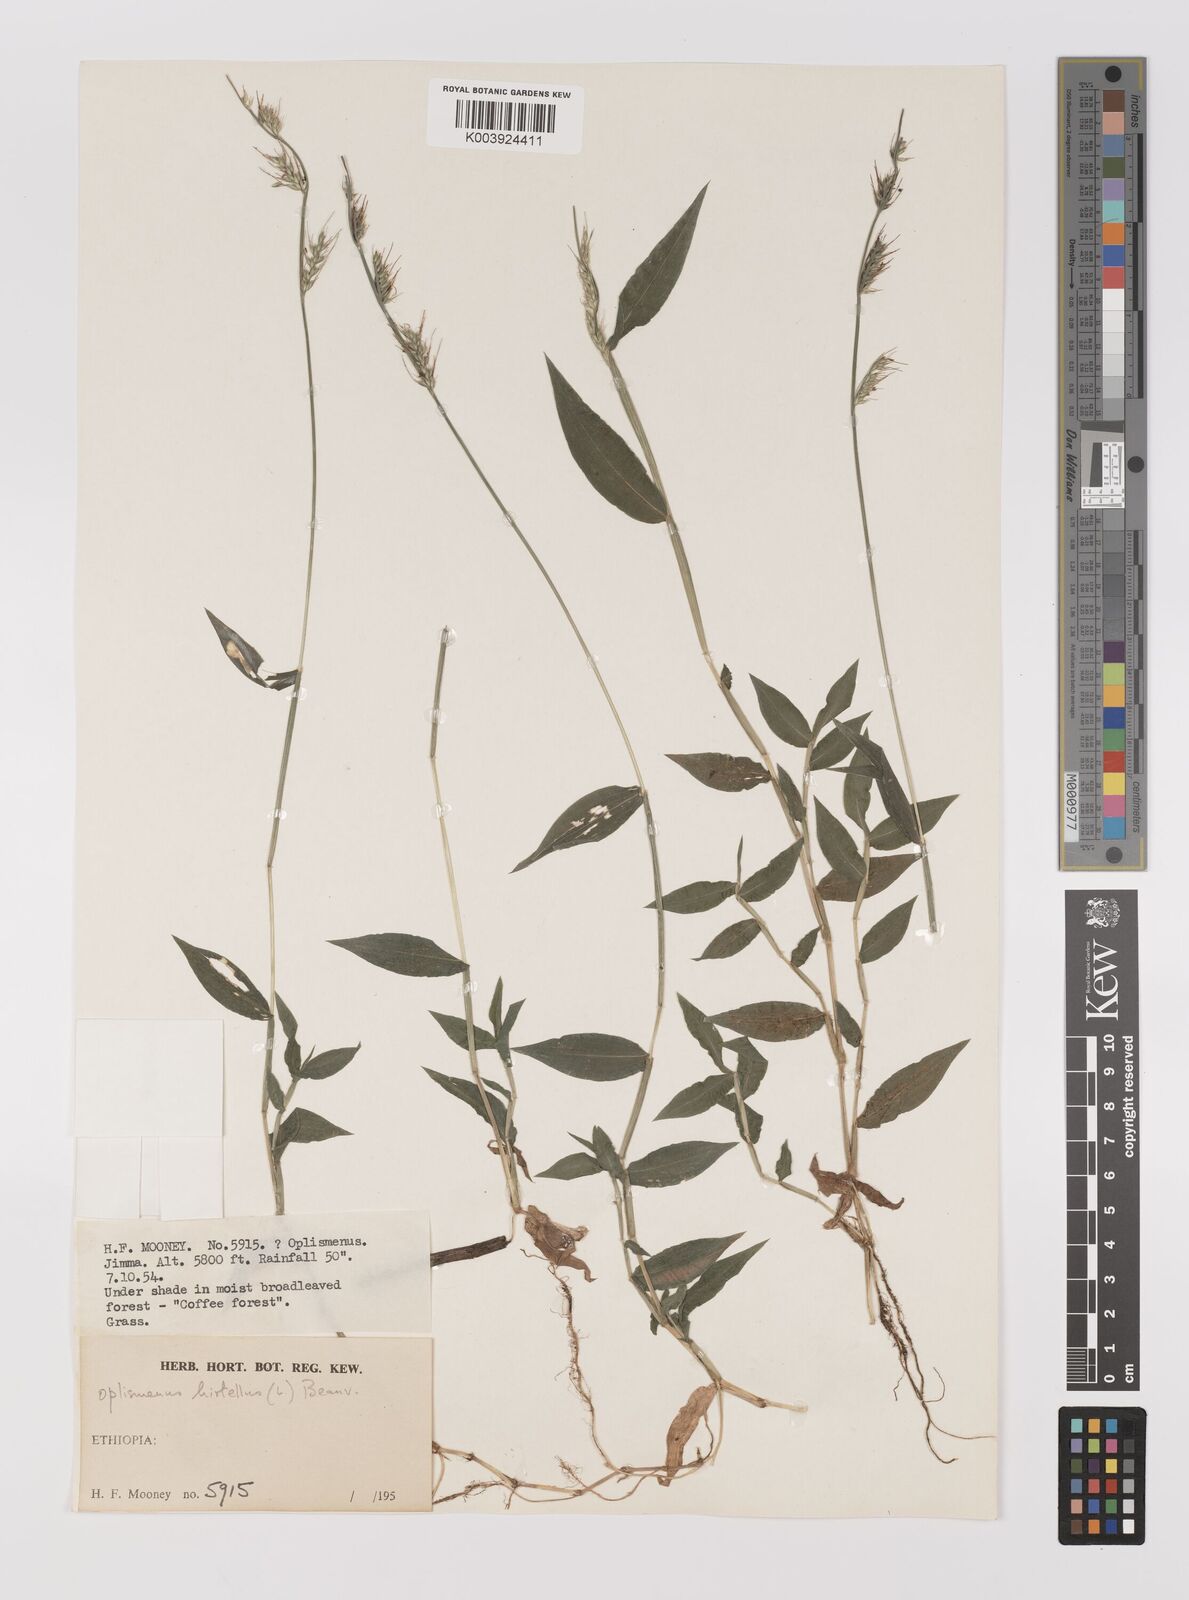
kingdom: Plantae
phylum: Tracheophyta
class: Liliopsida
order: Poales
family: Poaceae
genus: Oplismenus
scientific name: Oplismenus hirtellus
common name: Basketgrass
